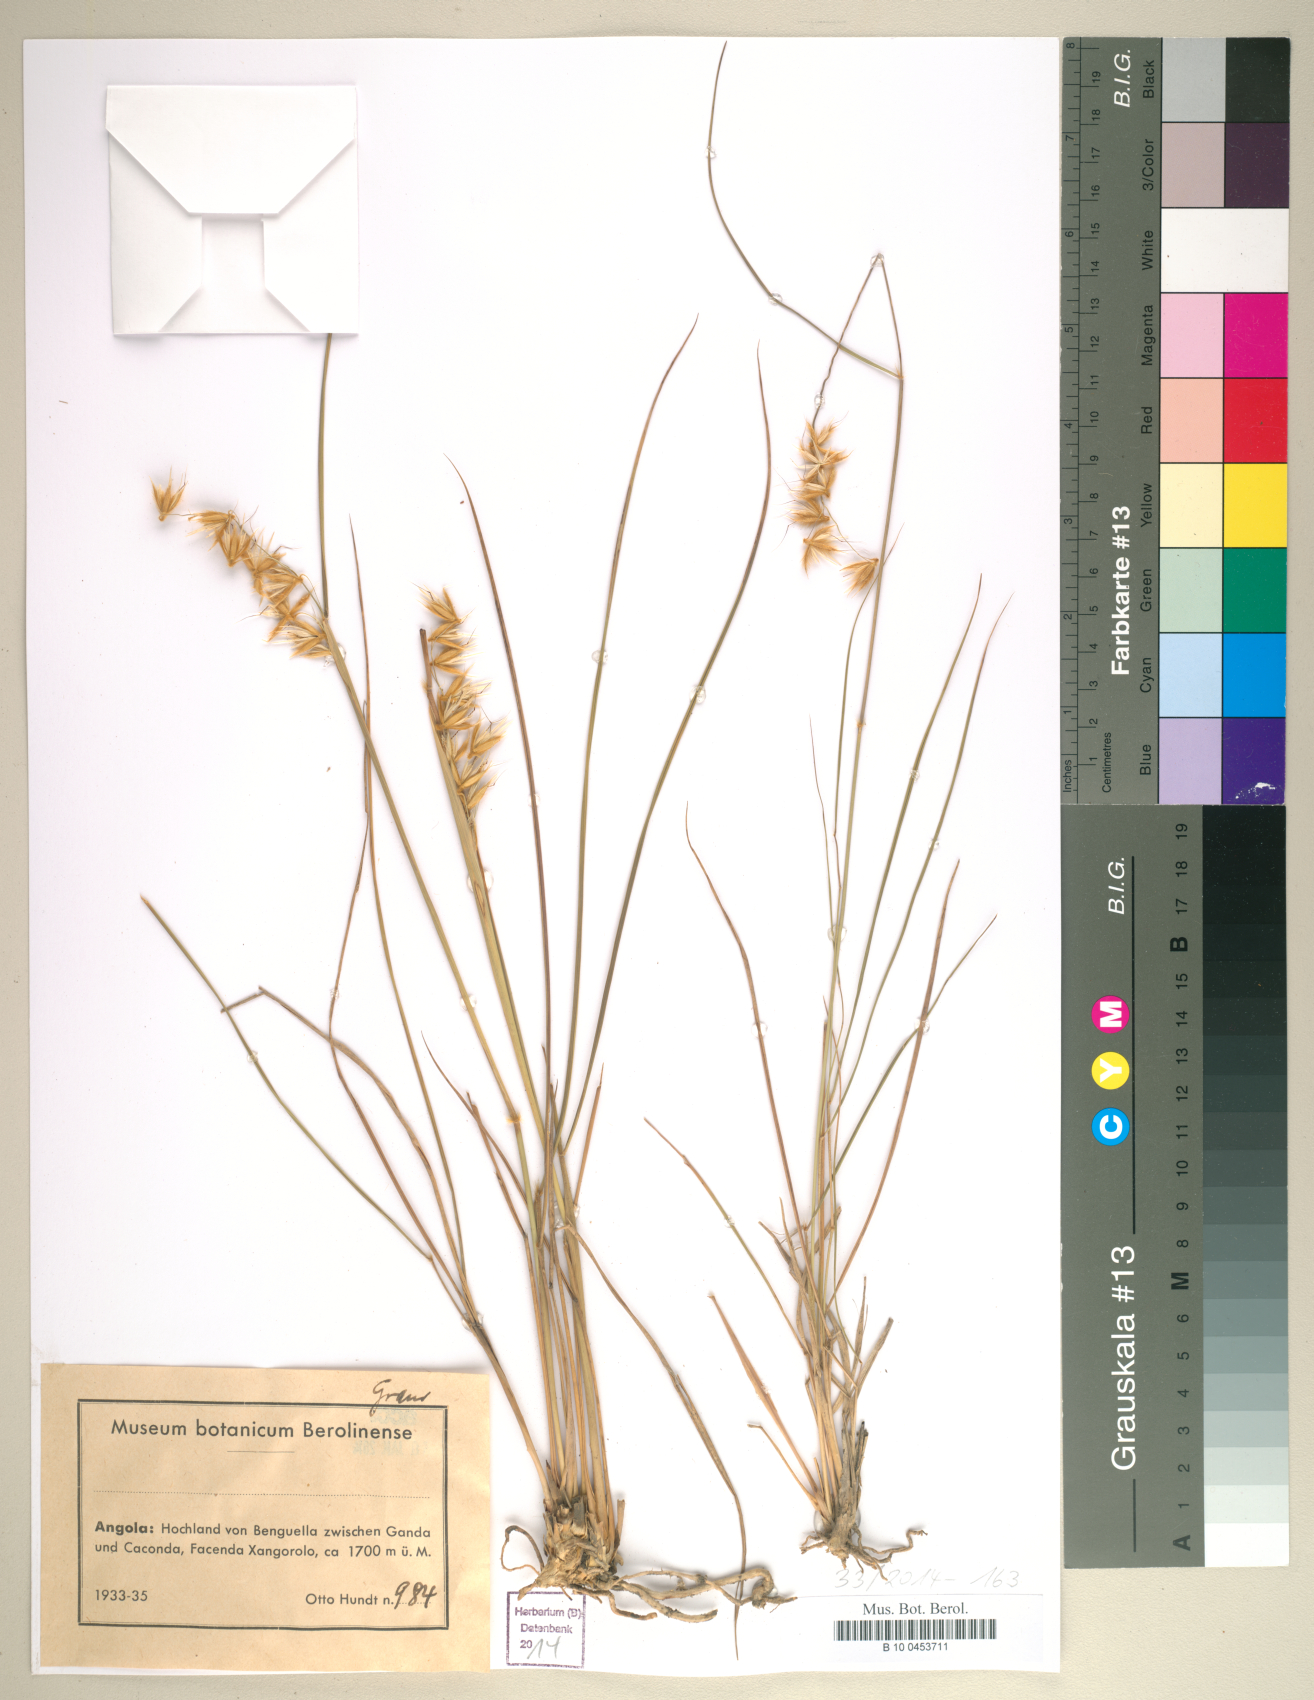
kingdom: Plantae
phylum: Tracheophyta
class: Liliopsida
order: Poales
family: Poaceae
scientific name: Poaceae
